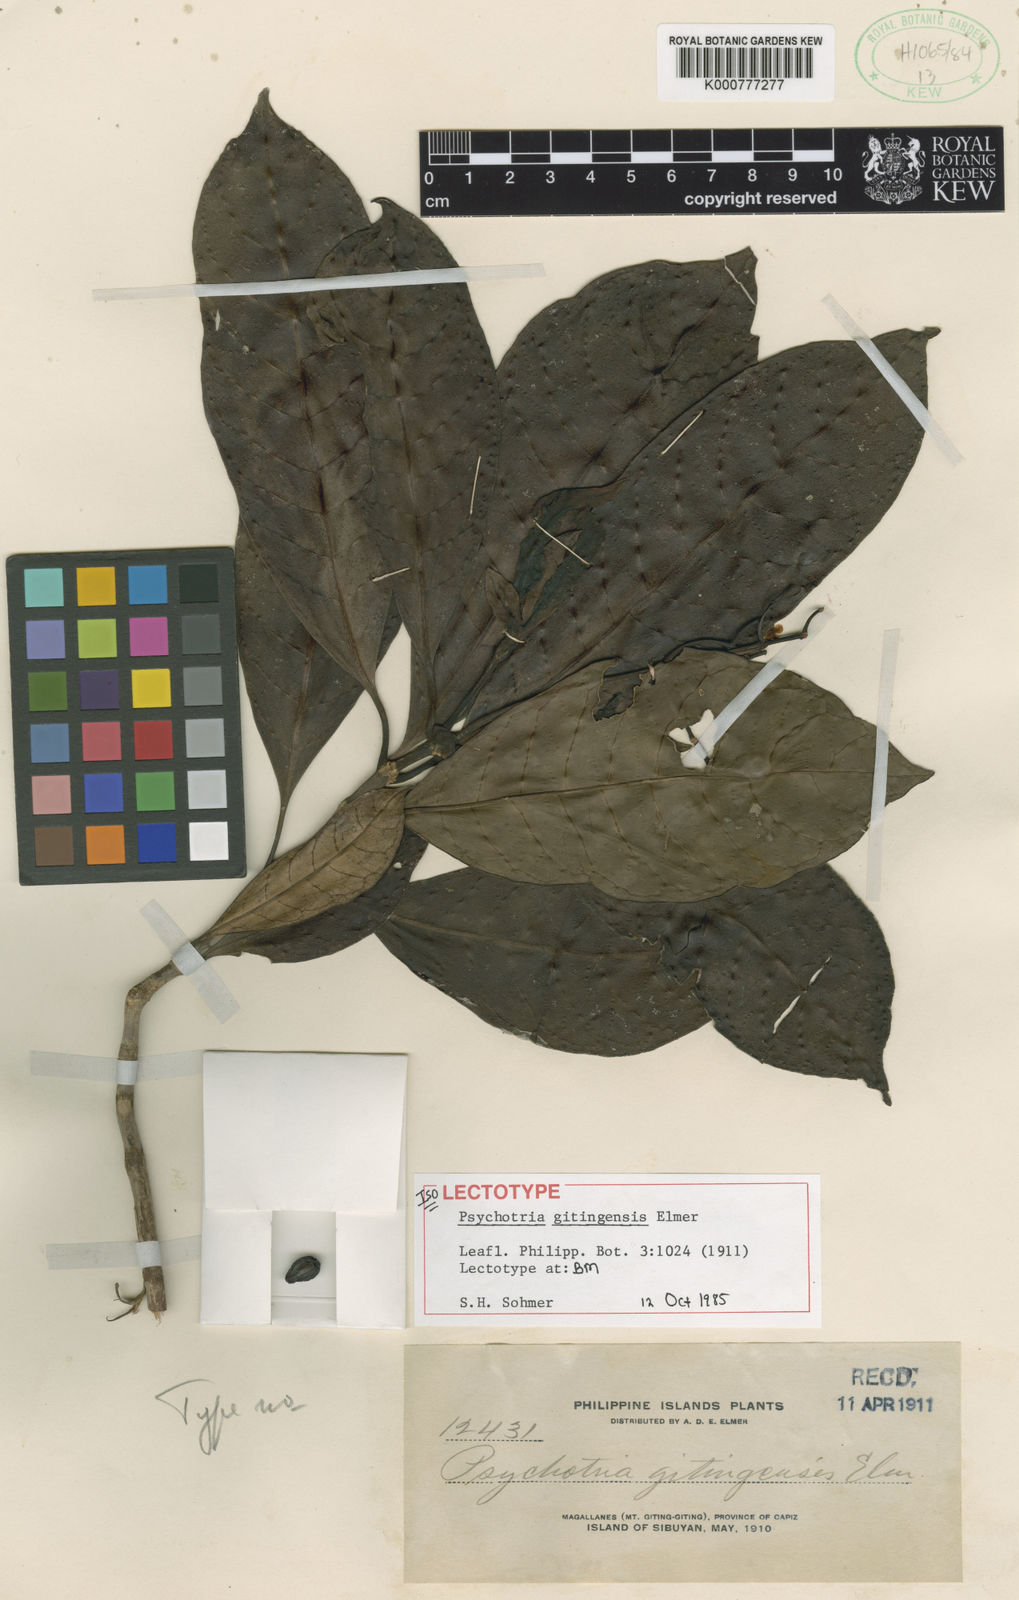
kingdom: Plantae
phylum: Tracheophyta
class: Magnoliopsida
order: Gentianales
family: Rubiaceae
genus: Psychotria
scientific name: Psychotria gitingensis
